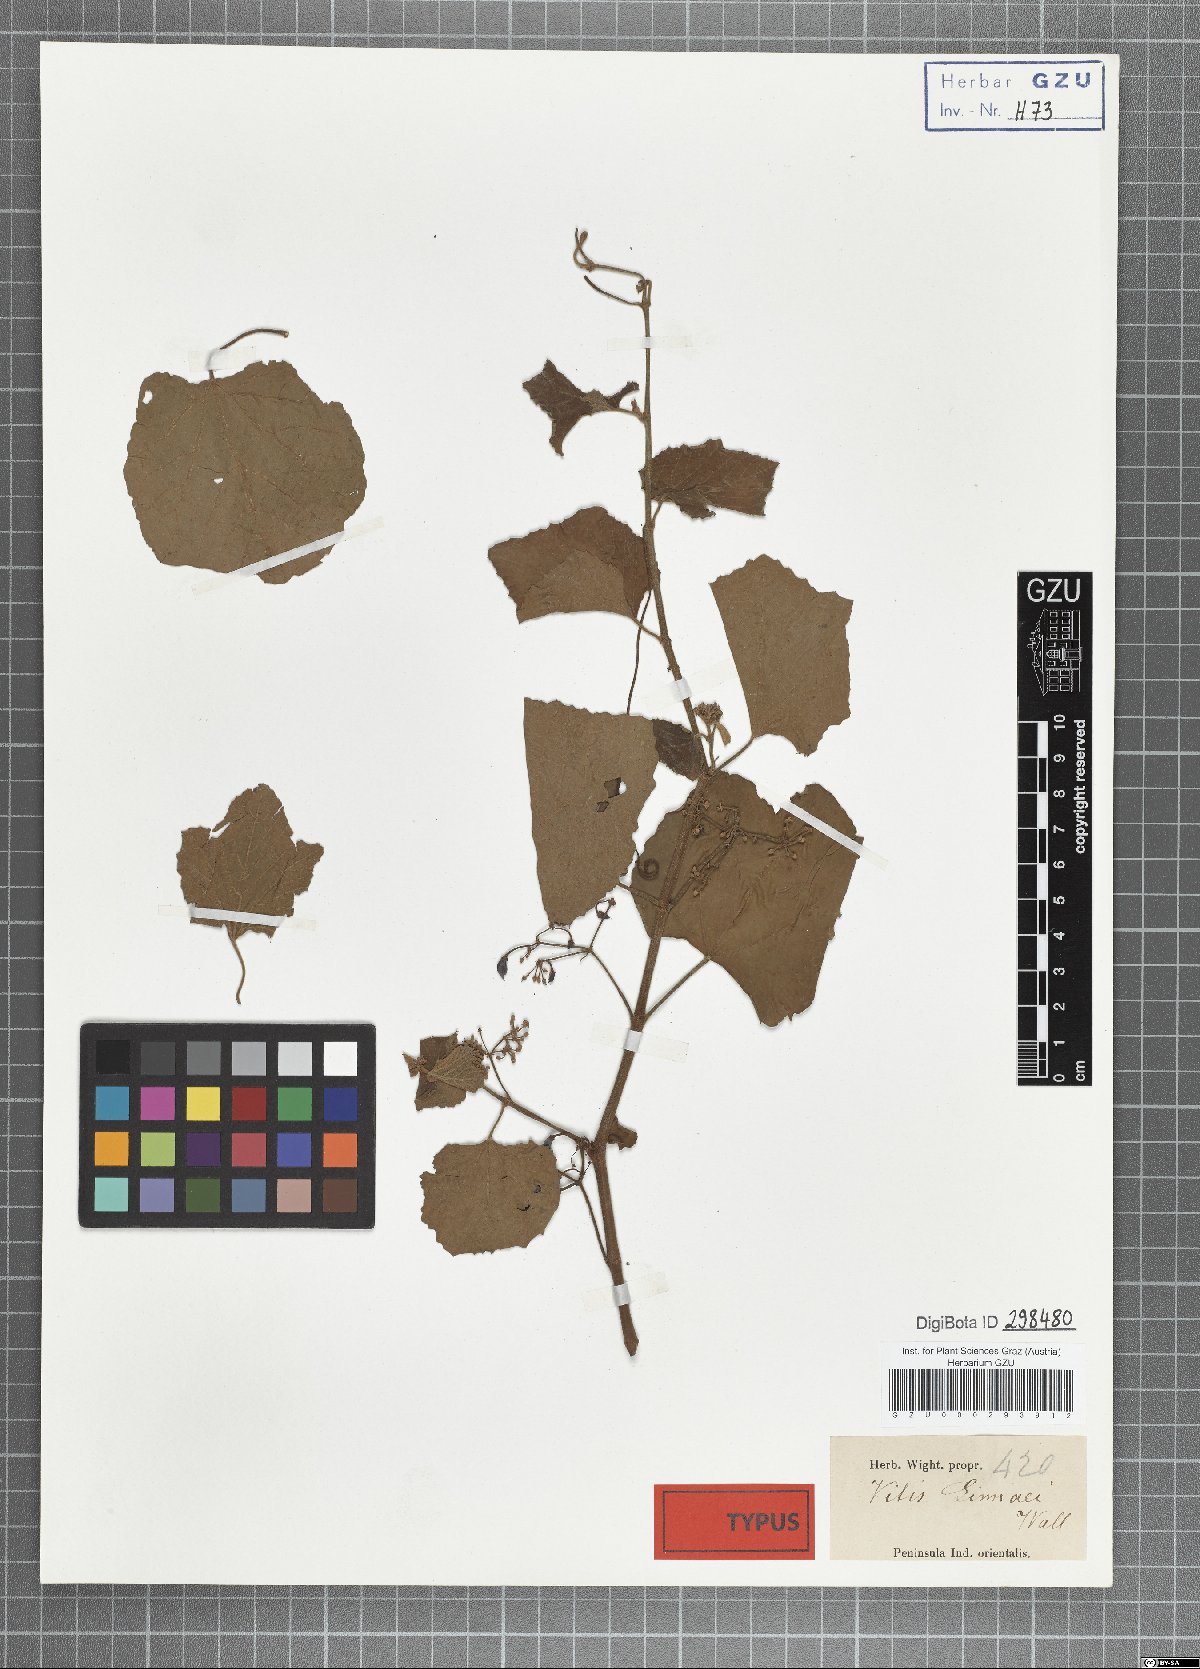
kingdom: Plantae
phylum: Tracheophyta
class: Magnoliopsida
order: Vitales
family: Vitaceae
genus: Cissus
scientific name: Cissus vitiginea
